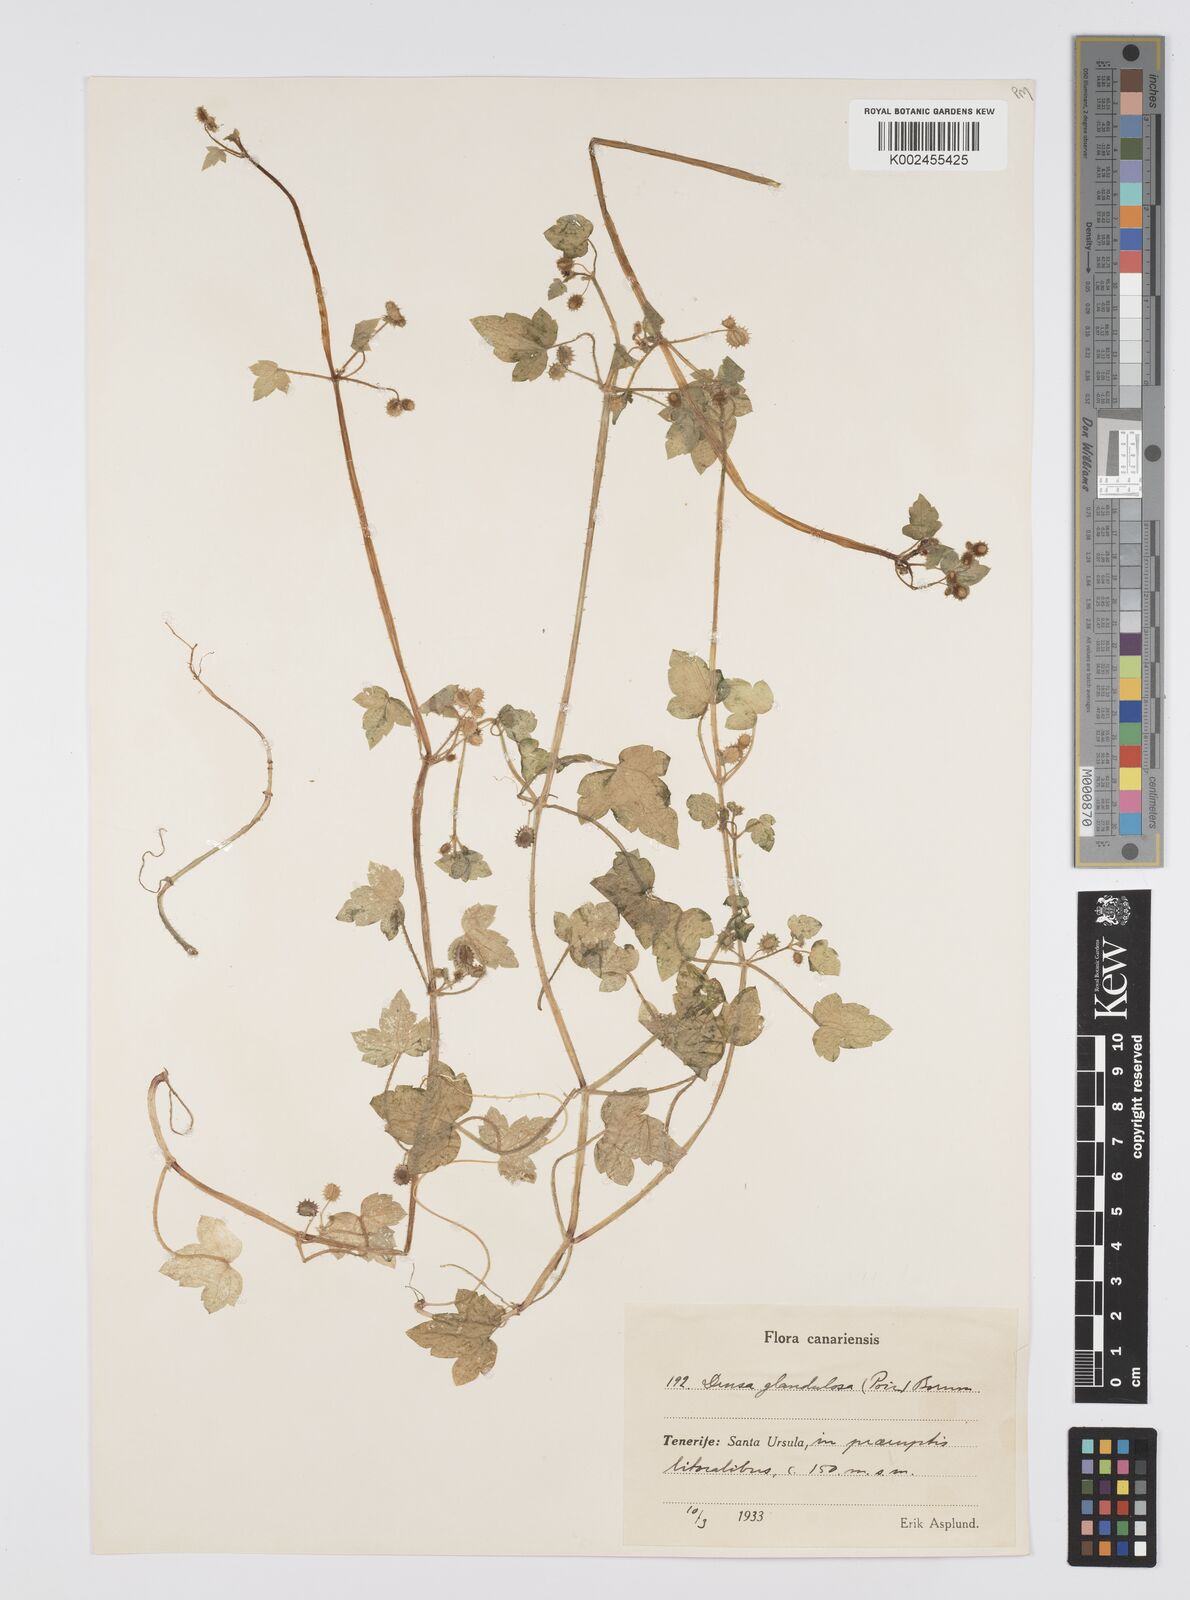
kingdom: Plantae
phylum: Tracheophyta
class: Magnoliopsida
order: Apiales
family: Apiaceae
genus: Drusa
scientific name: Drusa glandulosa
